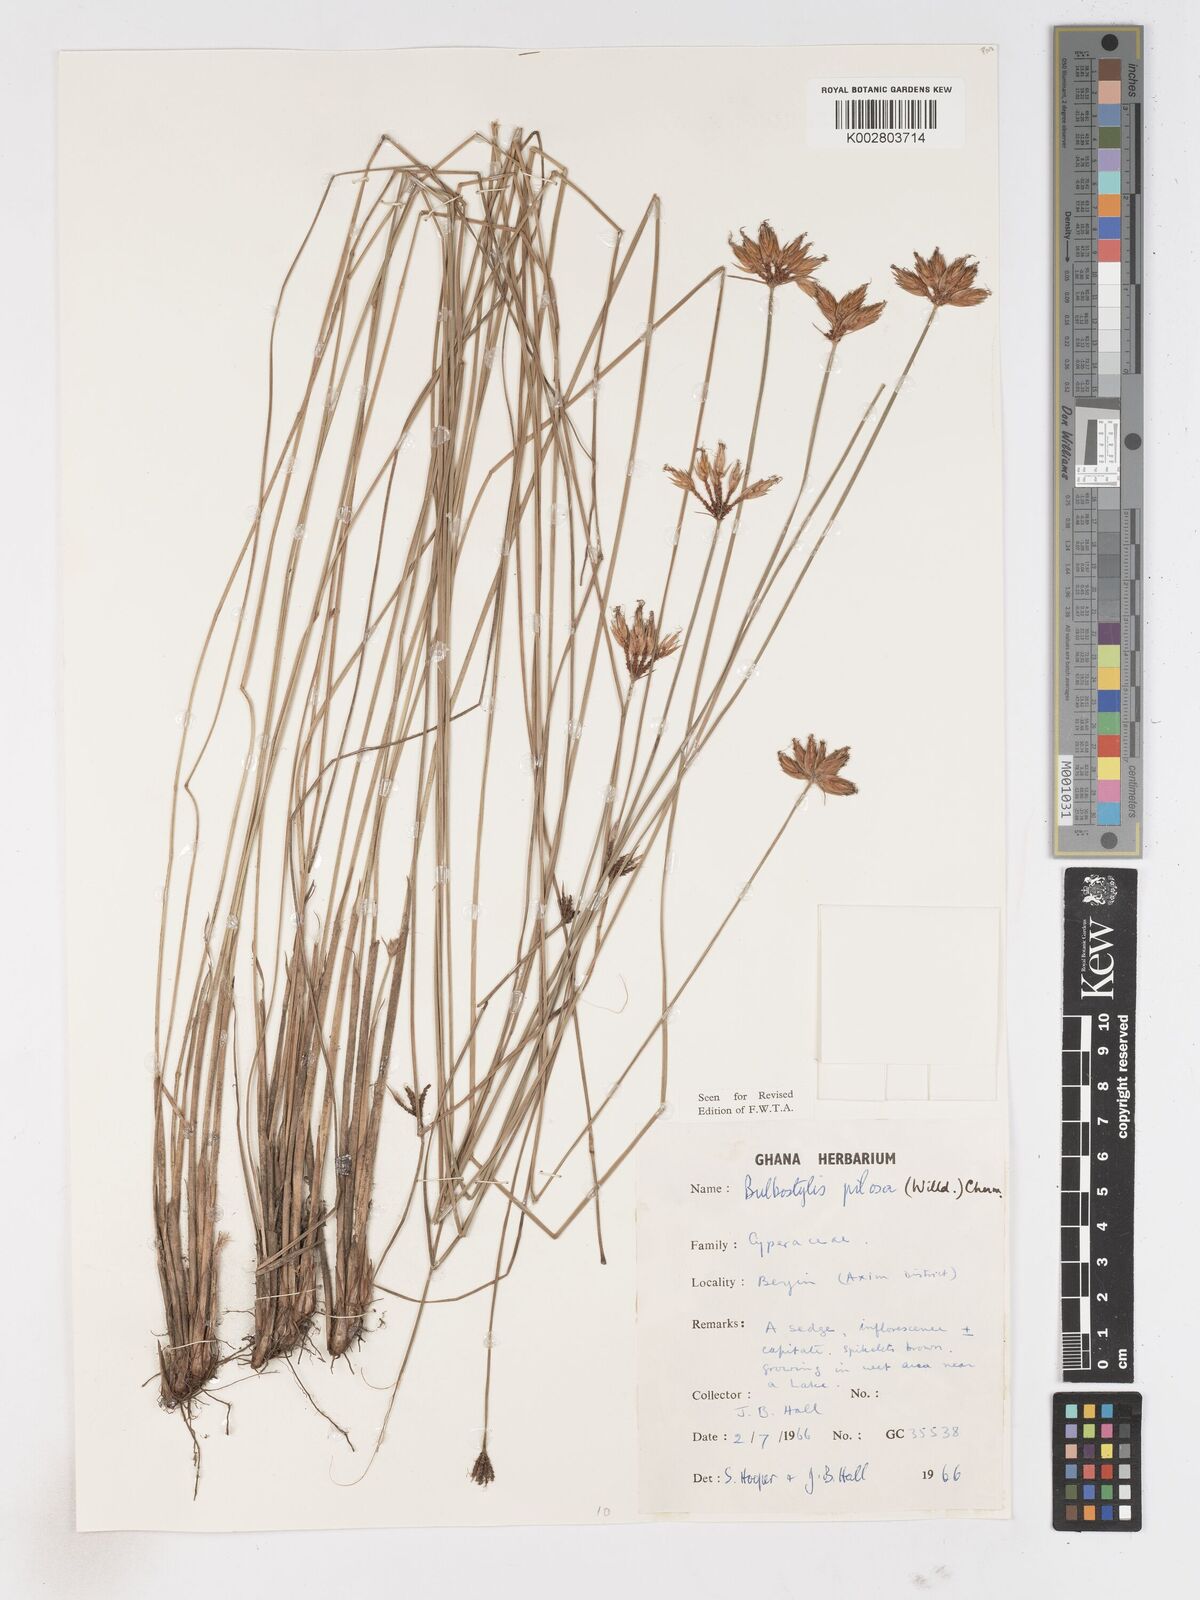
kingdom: Plantae
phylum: Tracheophyta
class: Liliopsida
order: Poales
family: Cyperaceae
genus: Bulbostylis
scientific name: Bulbostylis pilosa
